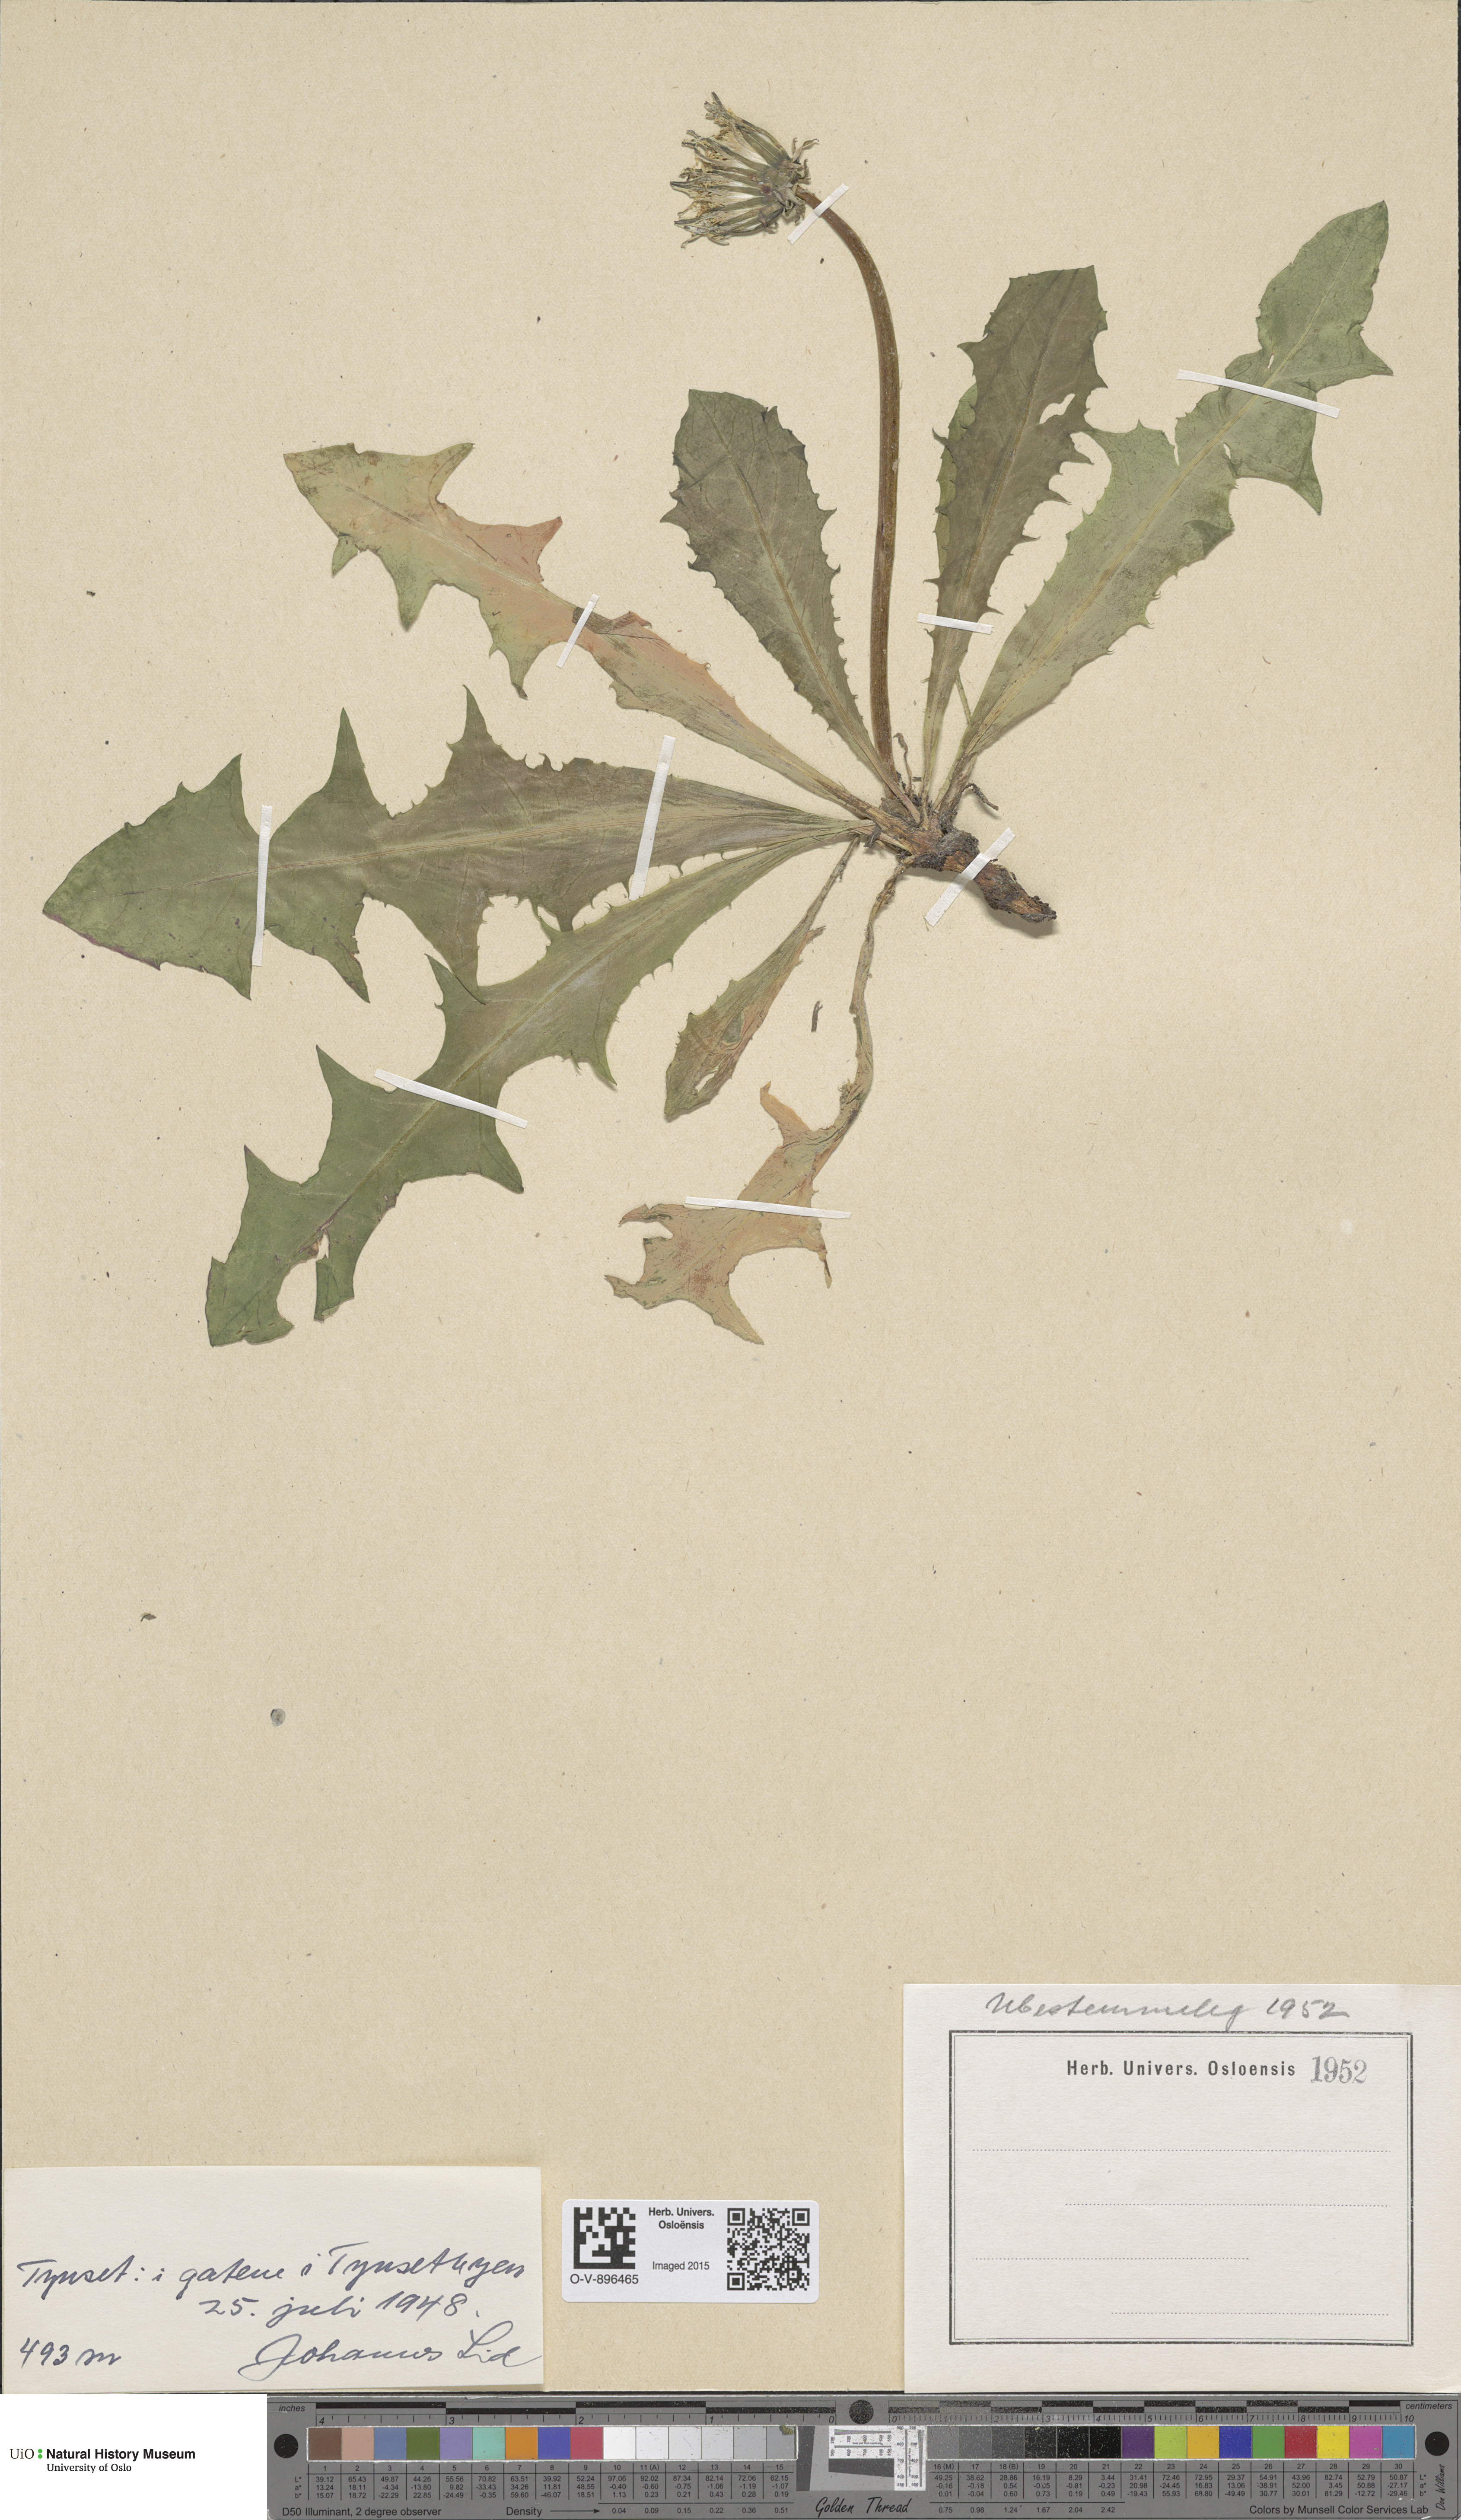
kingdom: Plantae
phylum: Tracheophyta
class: Magnoliopsida
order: Asterales
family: Asteraceae
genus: Taraxacum
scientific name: Taraxacum
